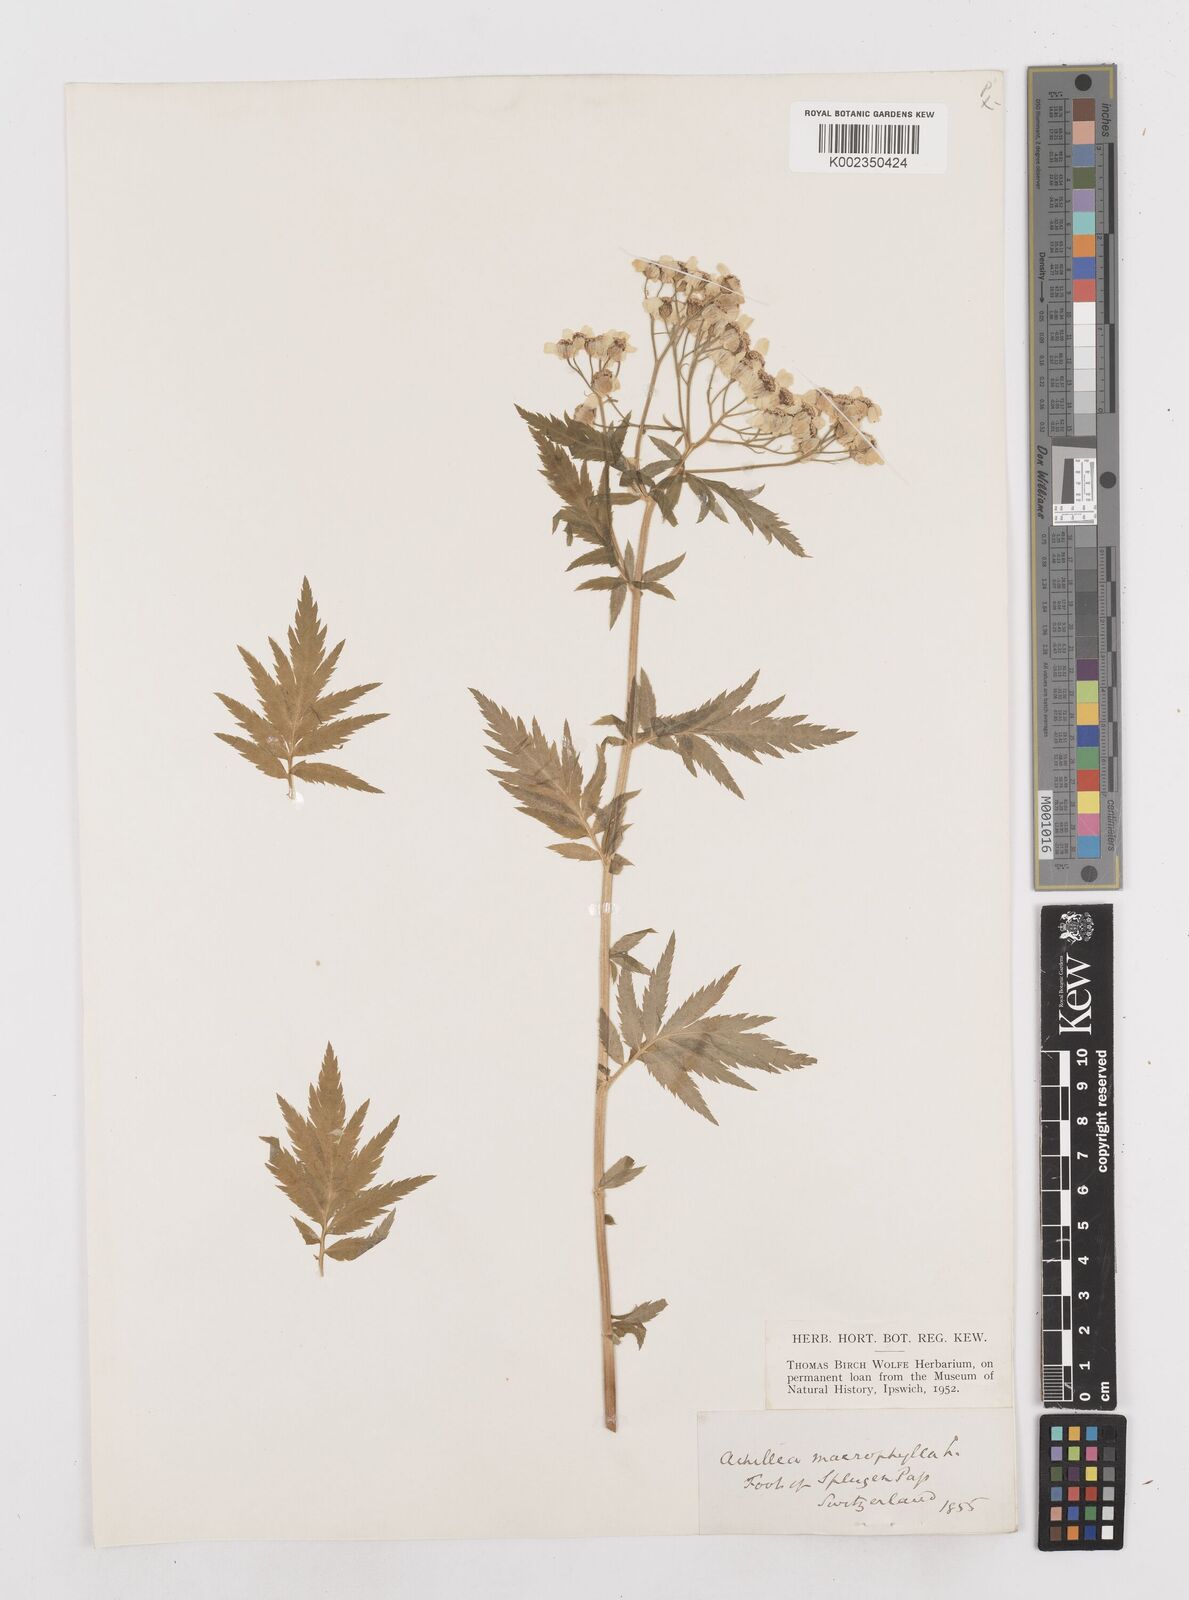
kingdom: Plantae
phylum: Tracheophyta
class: Magnoliopsida
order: Asterales
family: Asteraceae
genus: Achillea
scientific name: Achillea macrophylla
